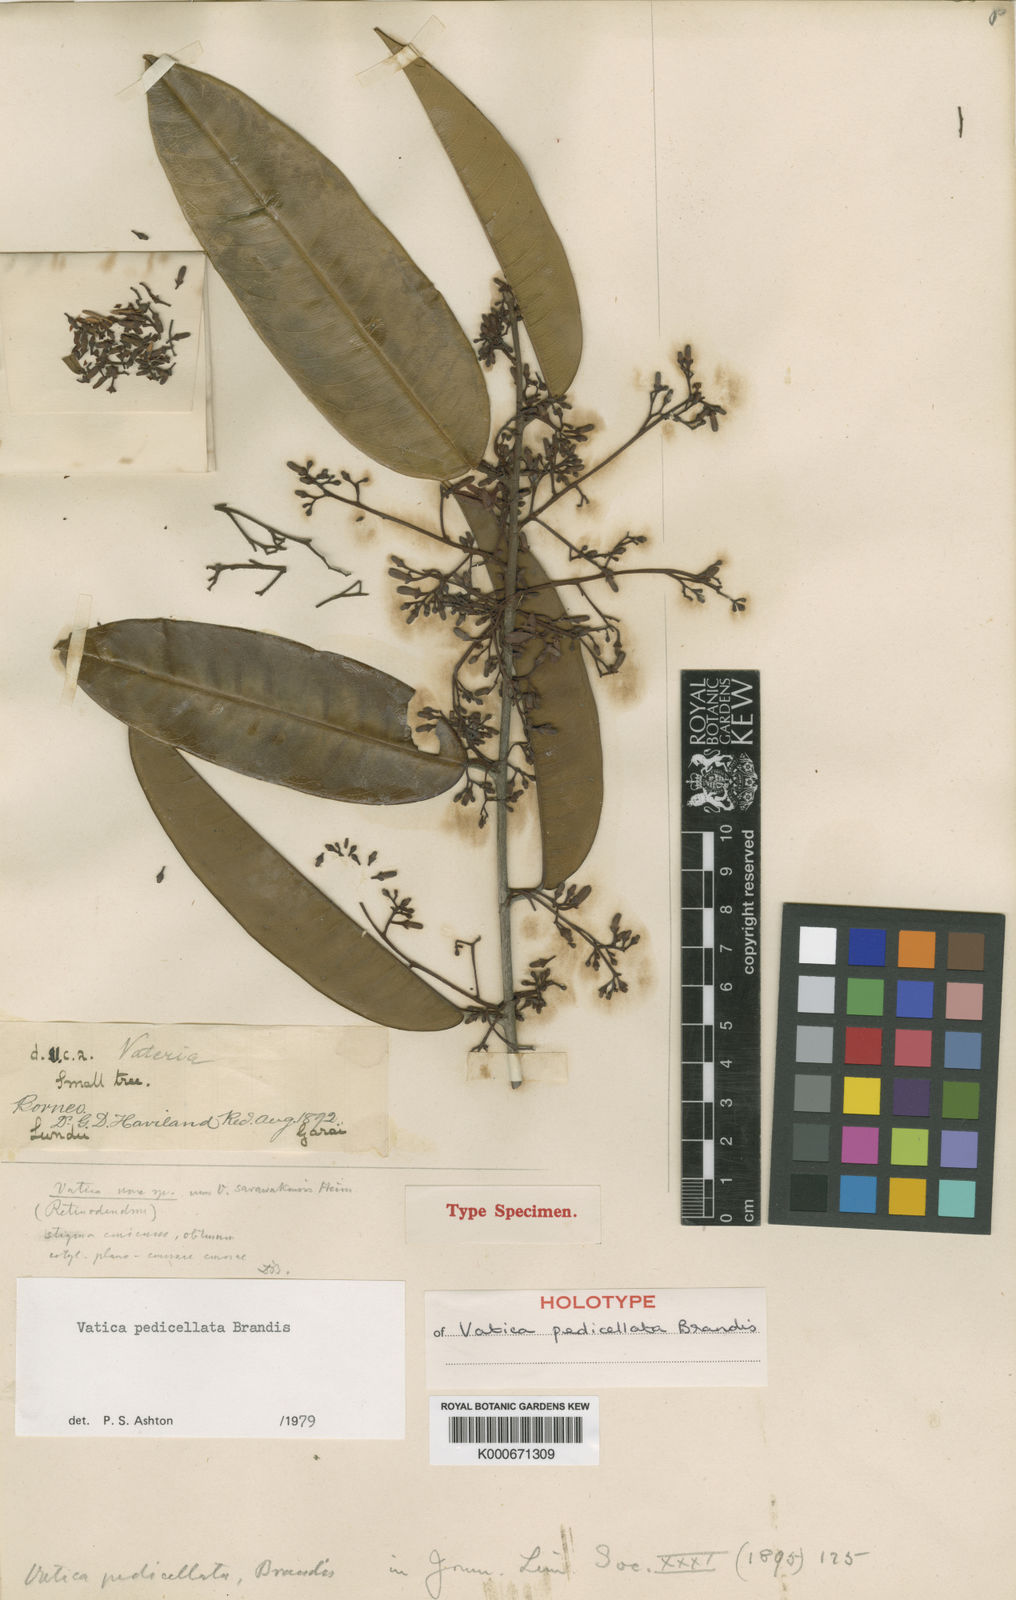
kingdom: Plantae
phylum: Tracheophyta
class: Magnoliopsida
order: Malvales
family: Dipterocarpaceae
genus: Vatica
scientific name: Vatica pedicellata
